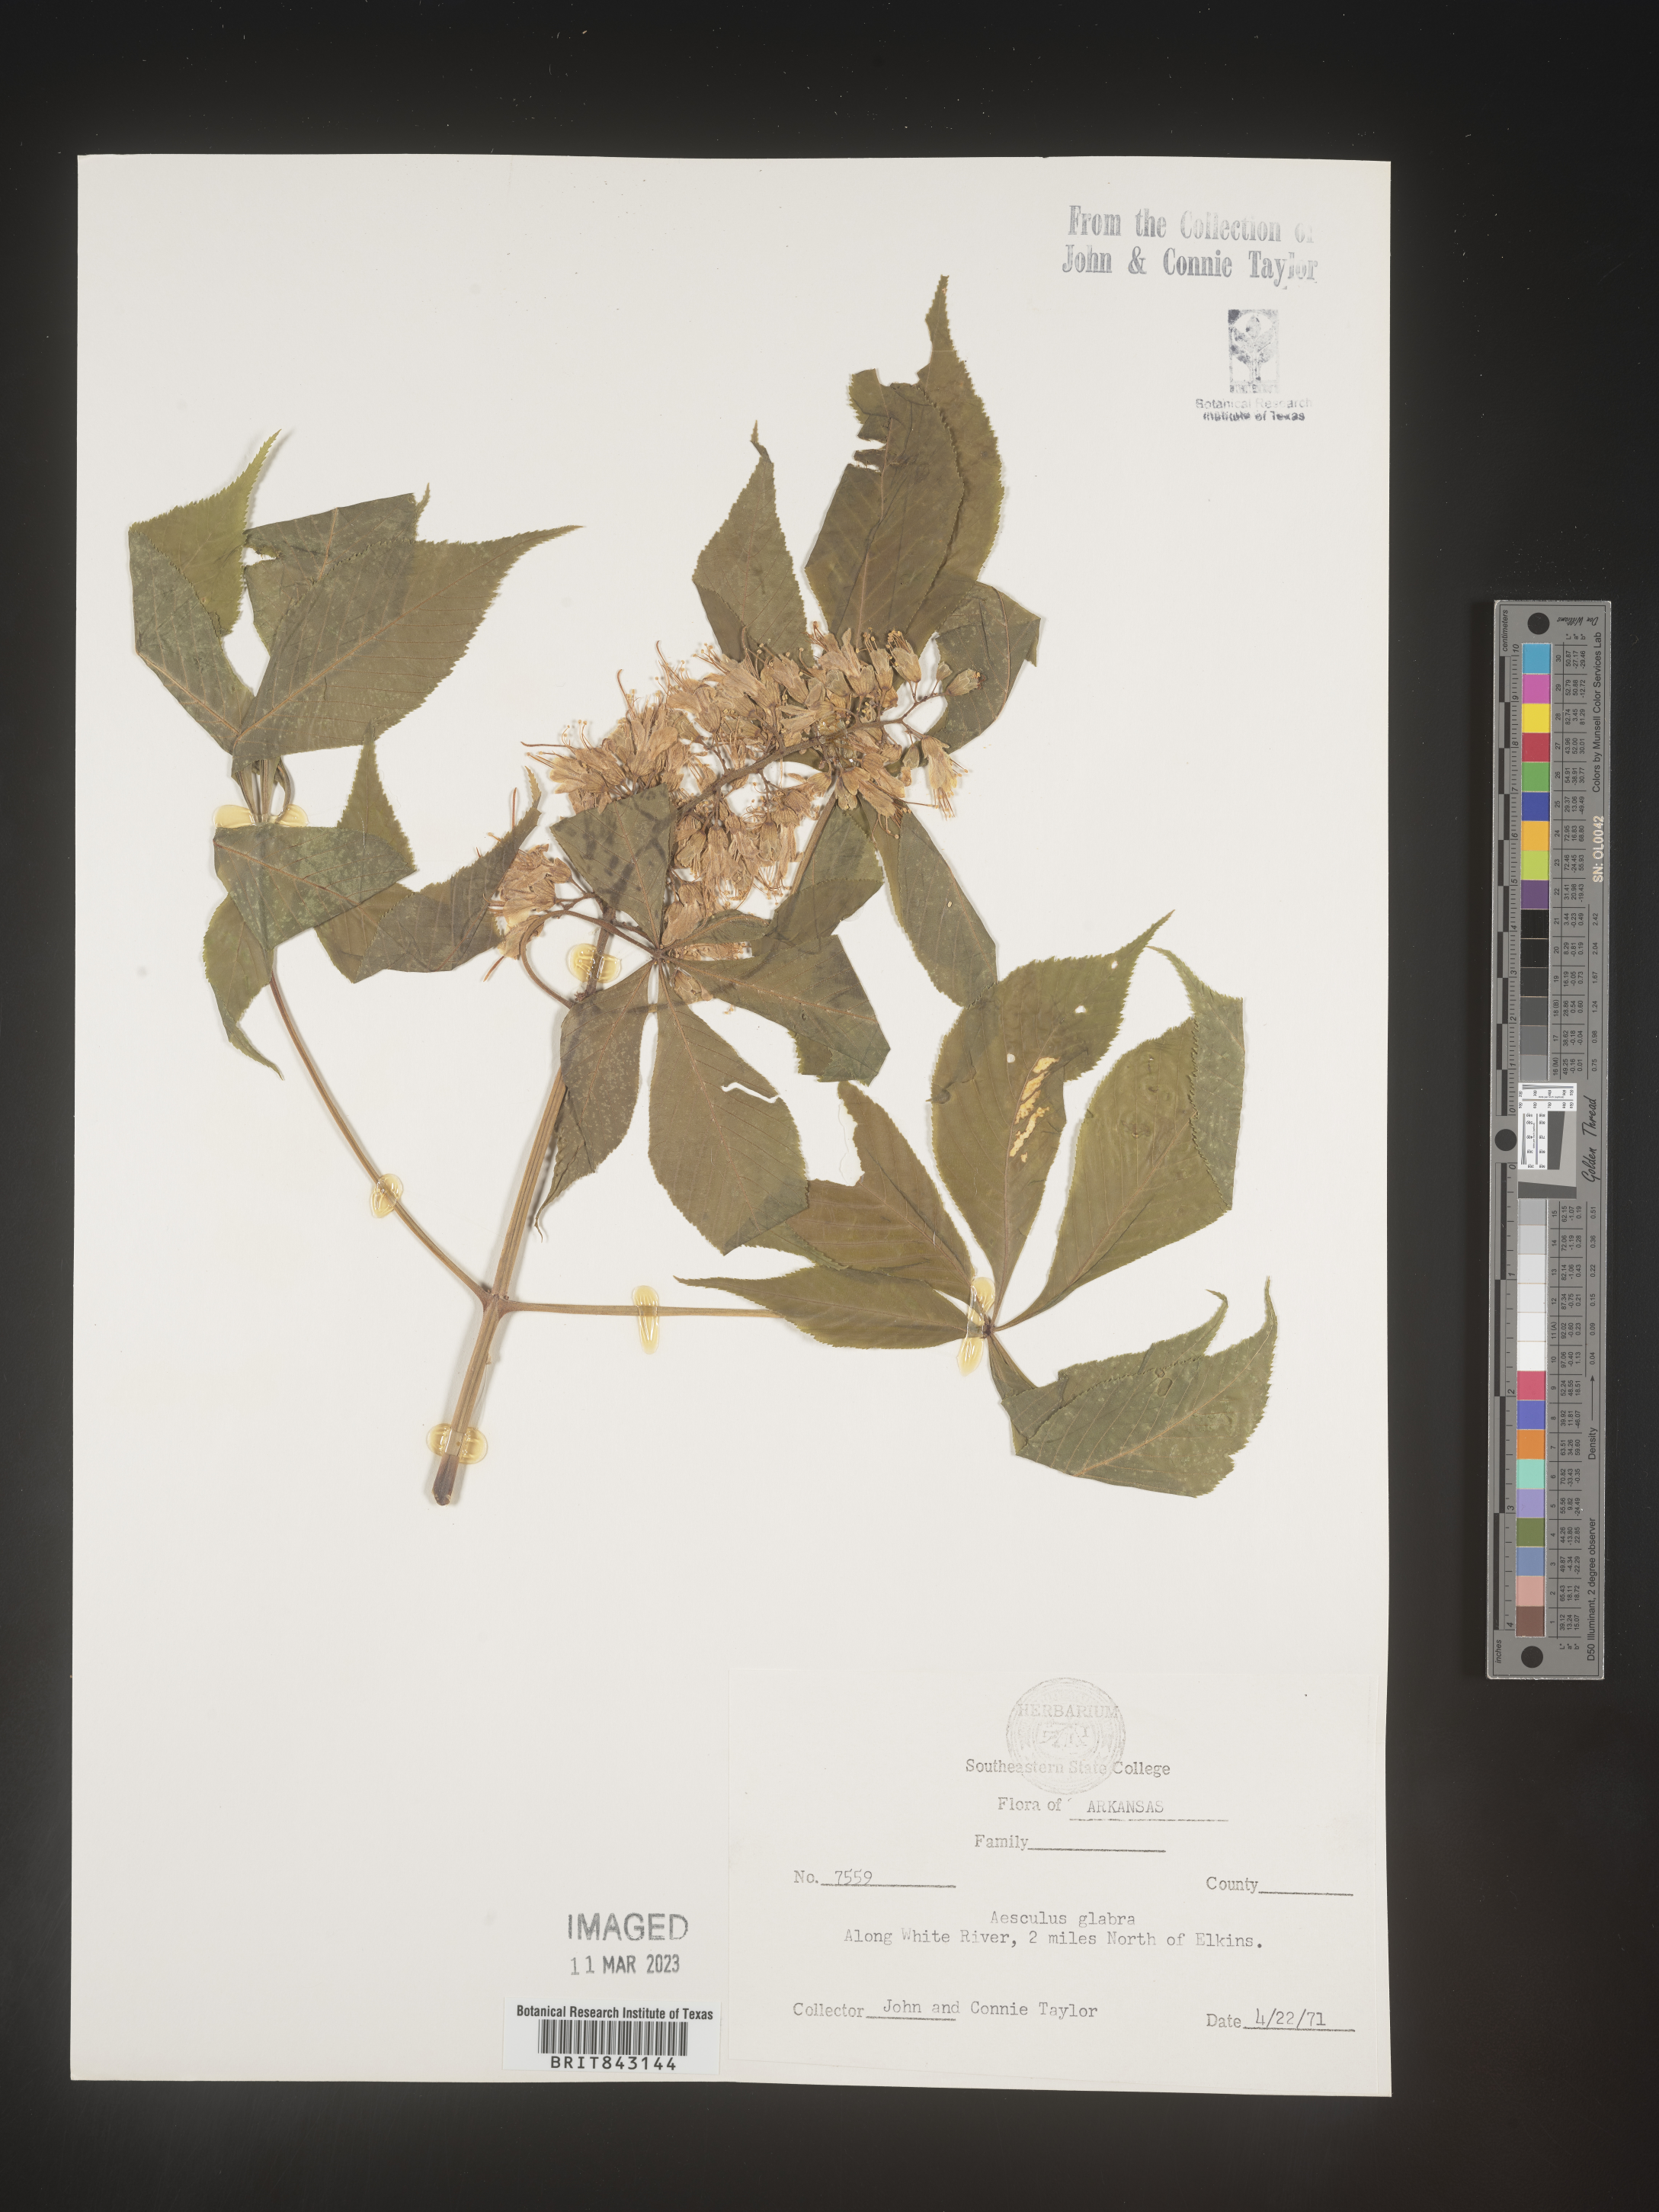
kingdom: Plantae
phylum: Tracheophyta
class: Magnoliopsida
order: Sapindales
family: Sapindaceae
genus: Aesculus
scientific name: Aesculus glabra
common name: Ohio buckeye
